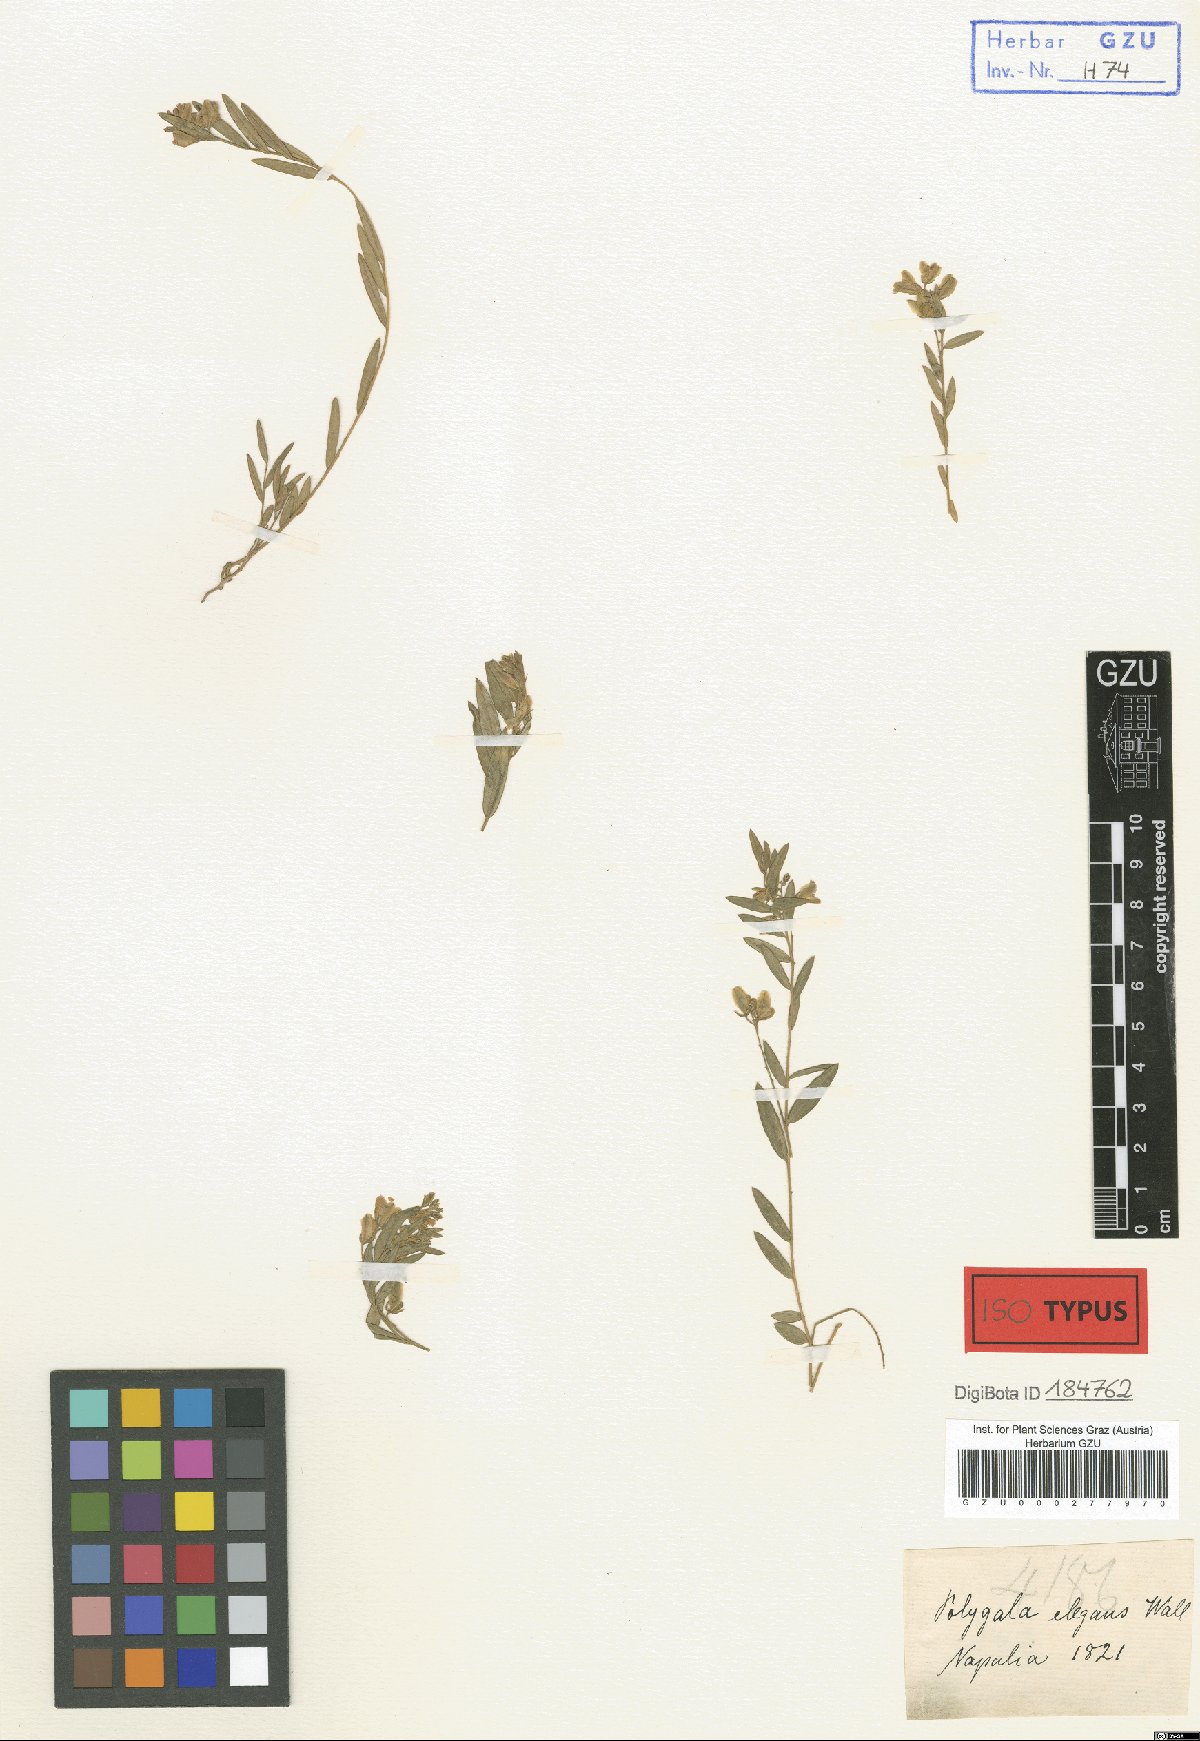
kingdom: Plantae
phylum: Tracheophyta
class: Magnoliopsida
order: Fabales
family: Polygalaceae
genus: Polygala
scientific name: Polygala elegans
